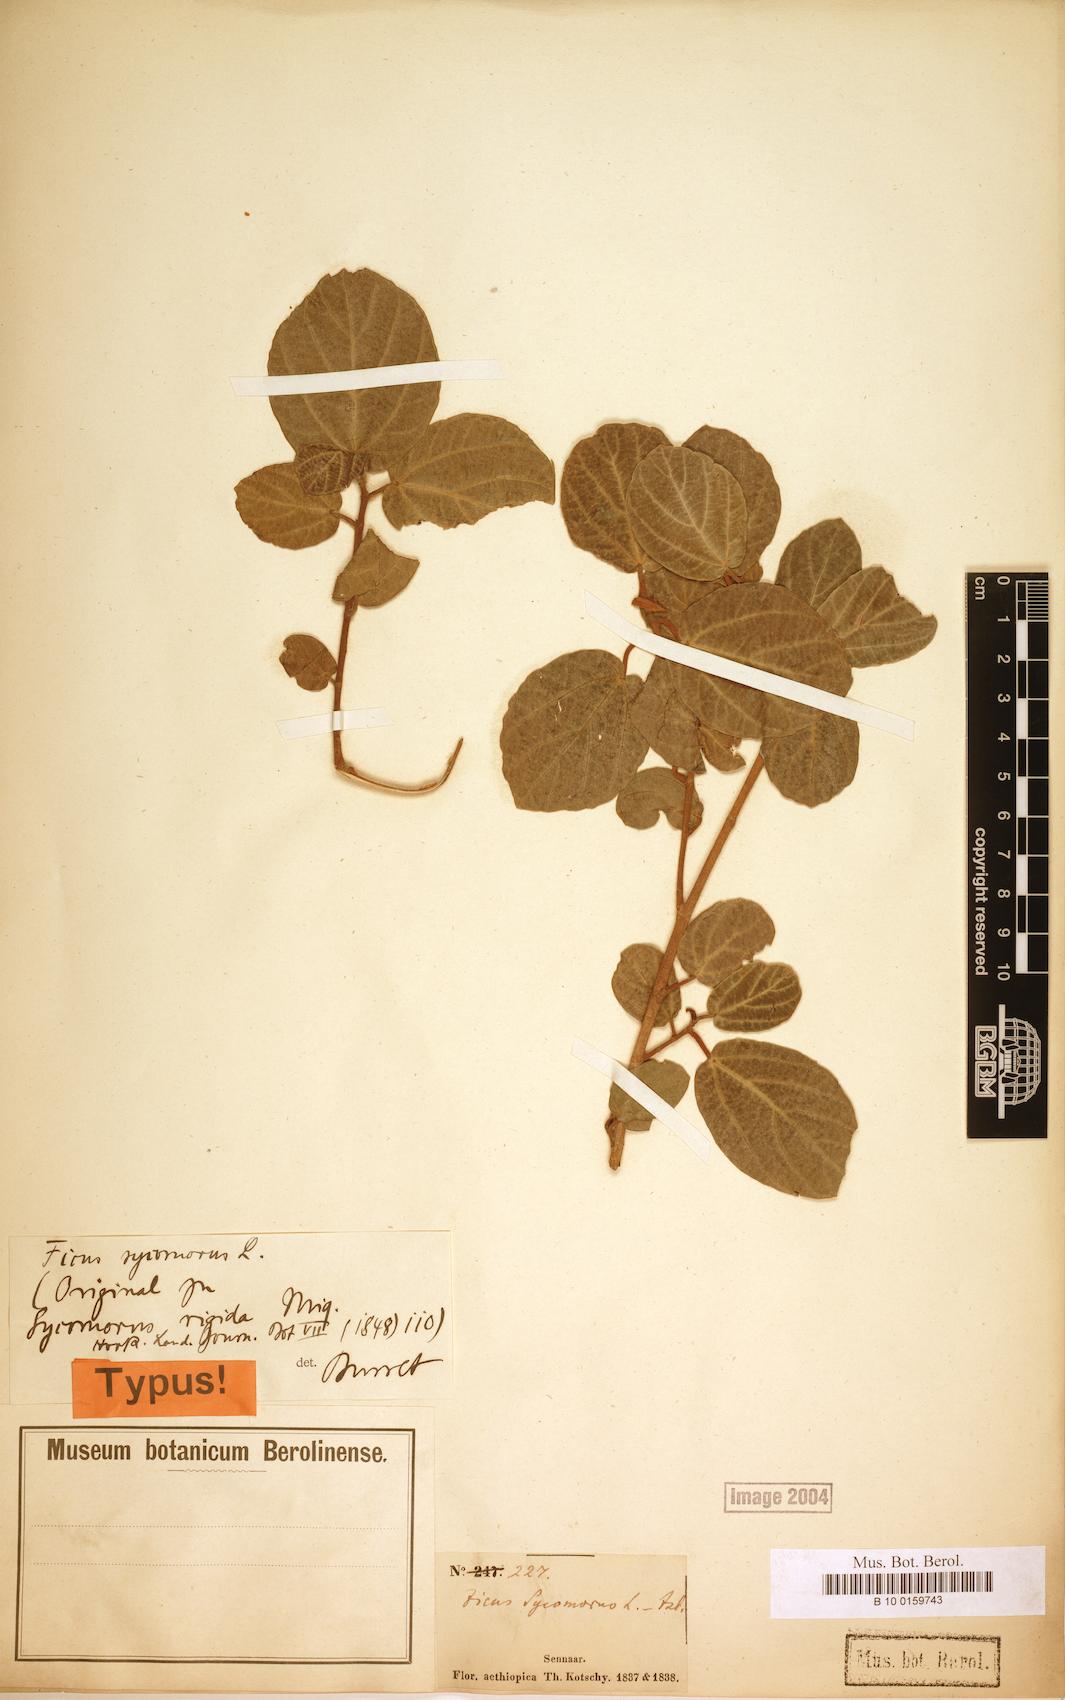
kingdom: Plantae
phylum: Tracheophyta
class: Magnoliopsida
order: Rosales
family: Moraceae
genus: Ficus
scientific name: Ficus sycomorus
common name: Sycomore
